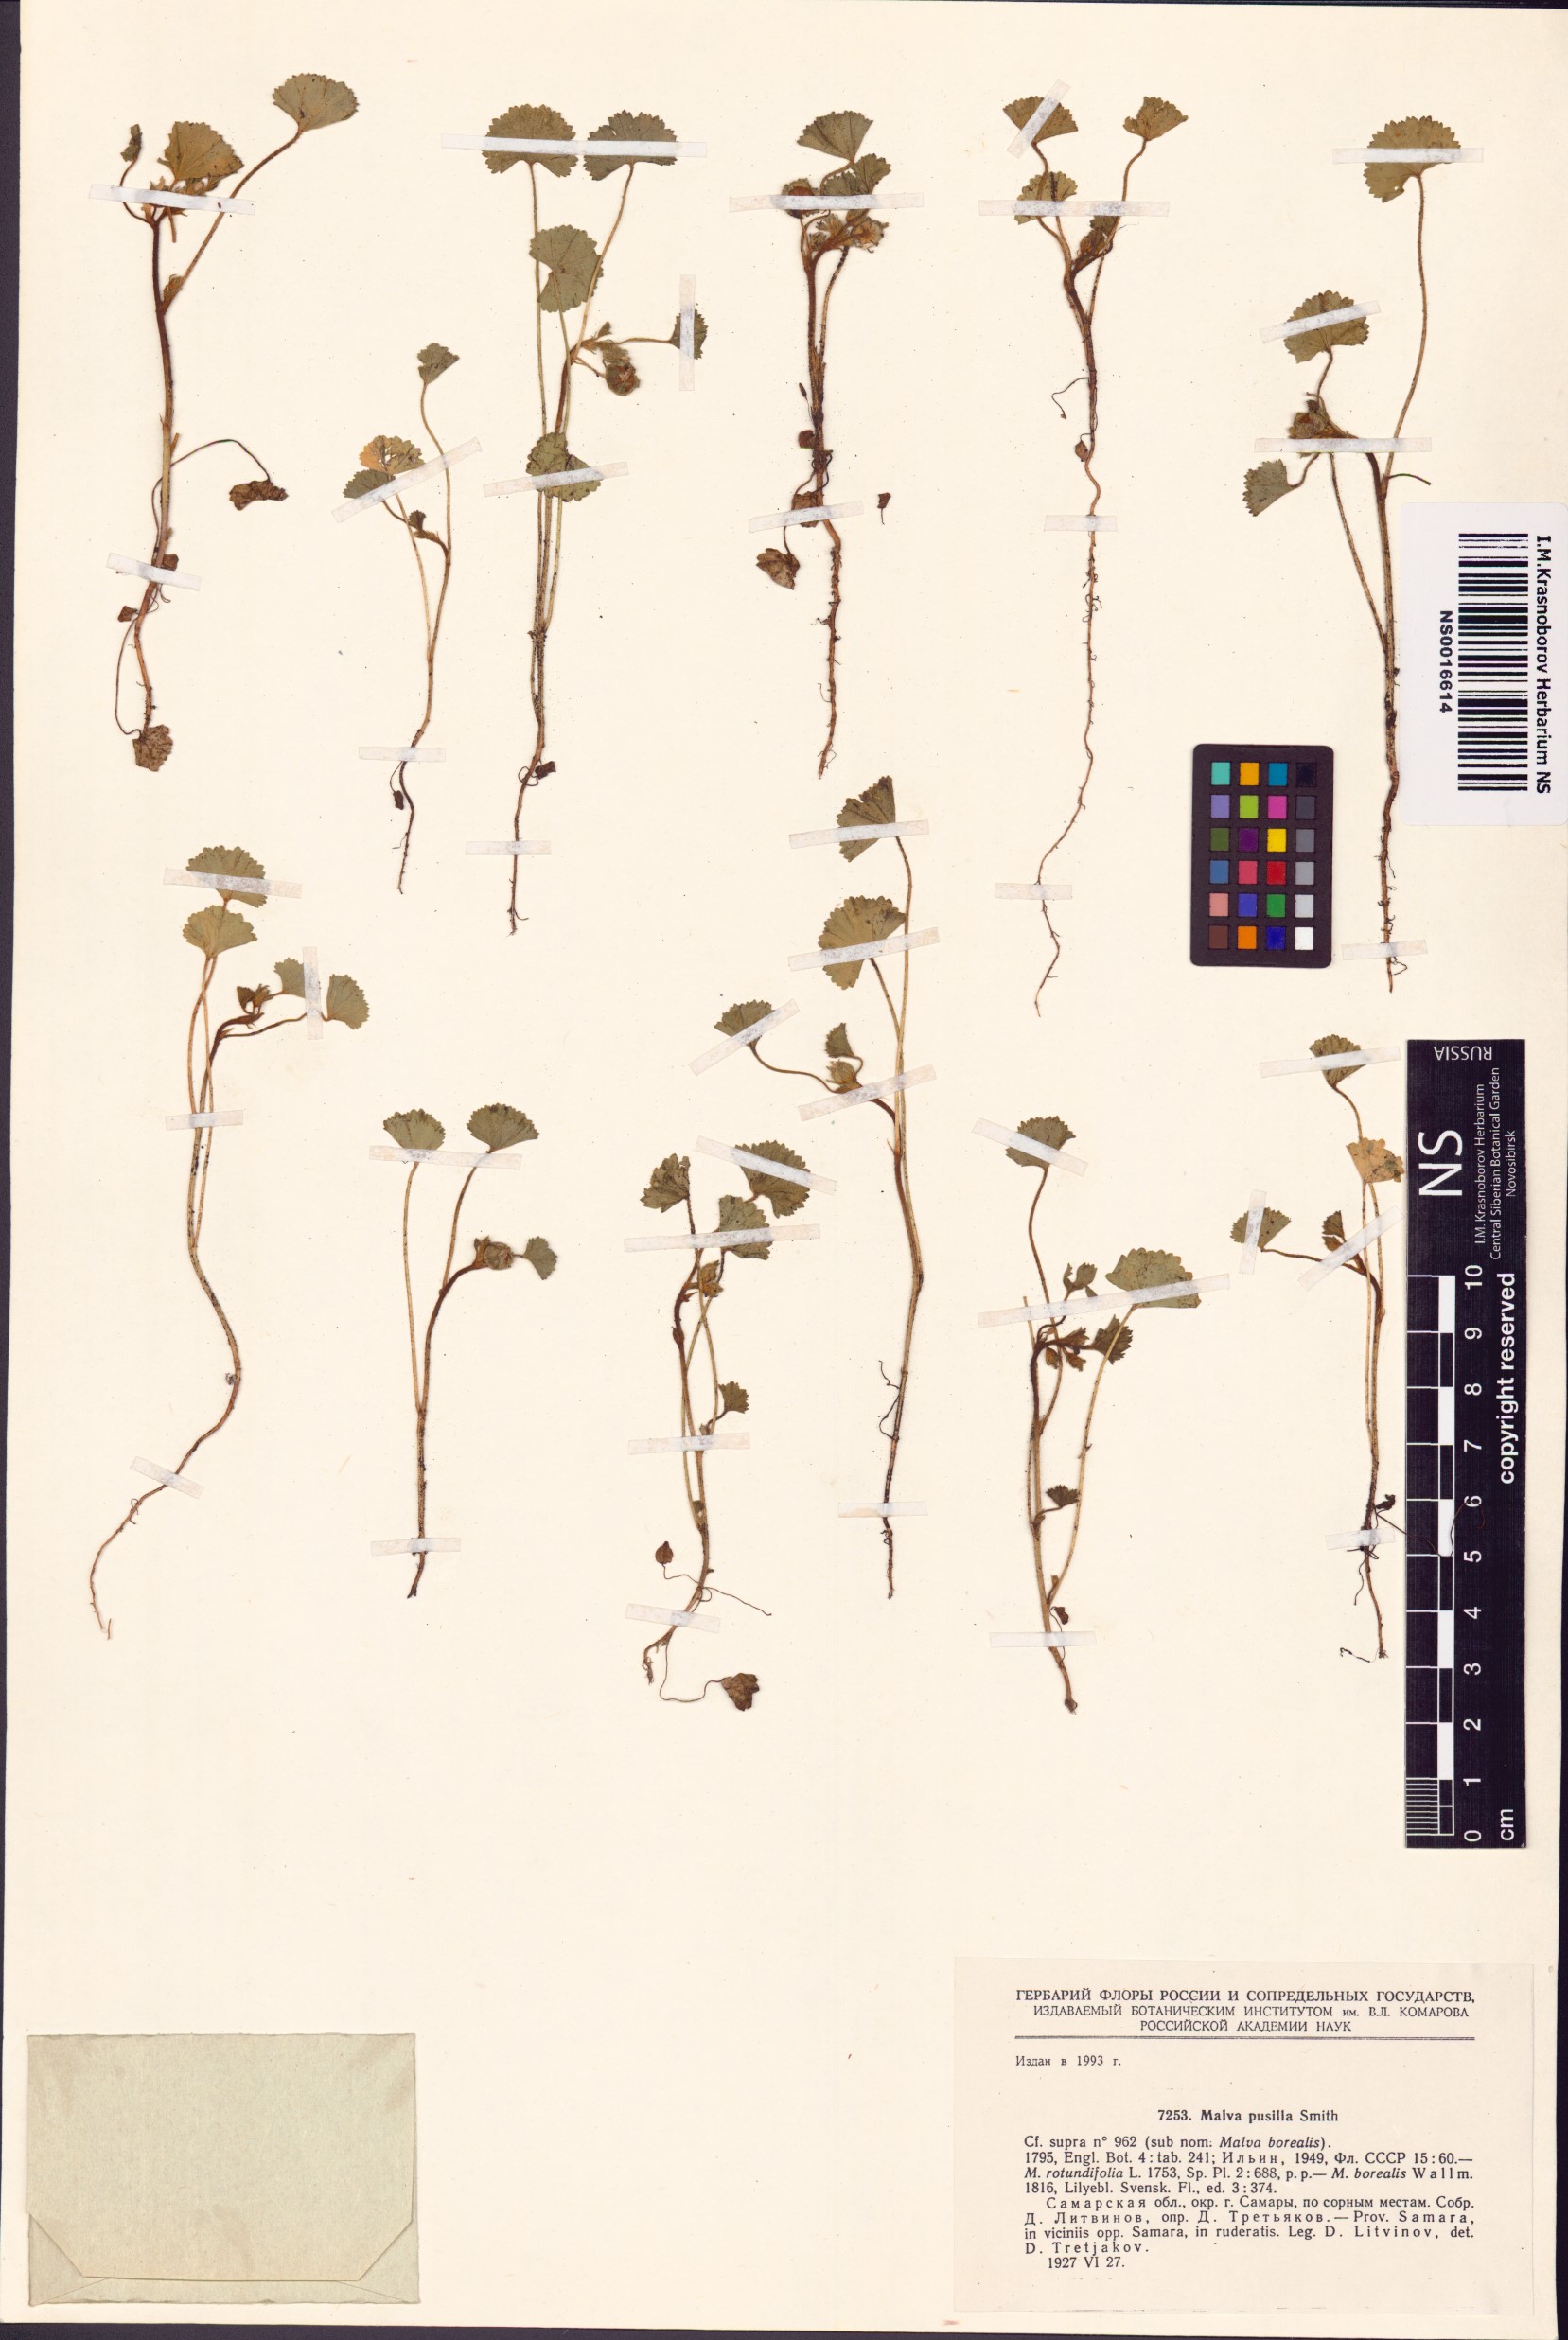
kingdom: Plantae
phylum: Tracheophyta
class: Magnoliopsida
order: Malvales
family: Malvaceae
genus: Malva
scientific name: Malva pusilla
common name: Small mallow
